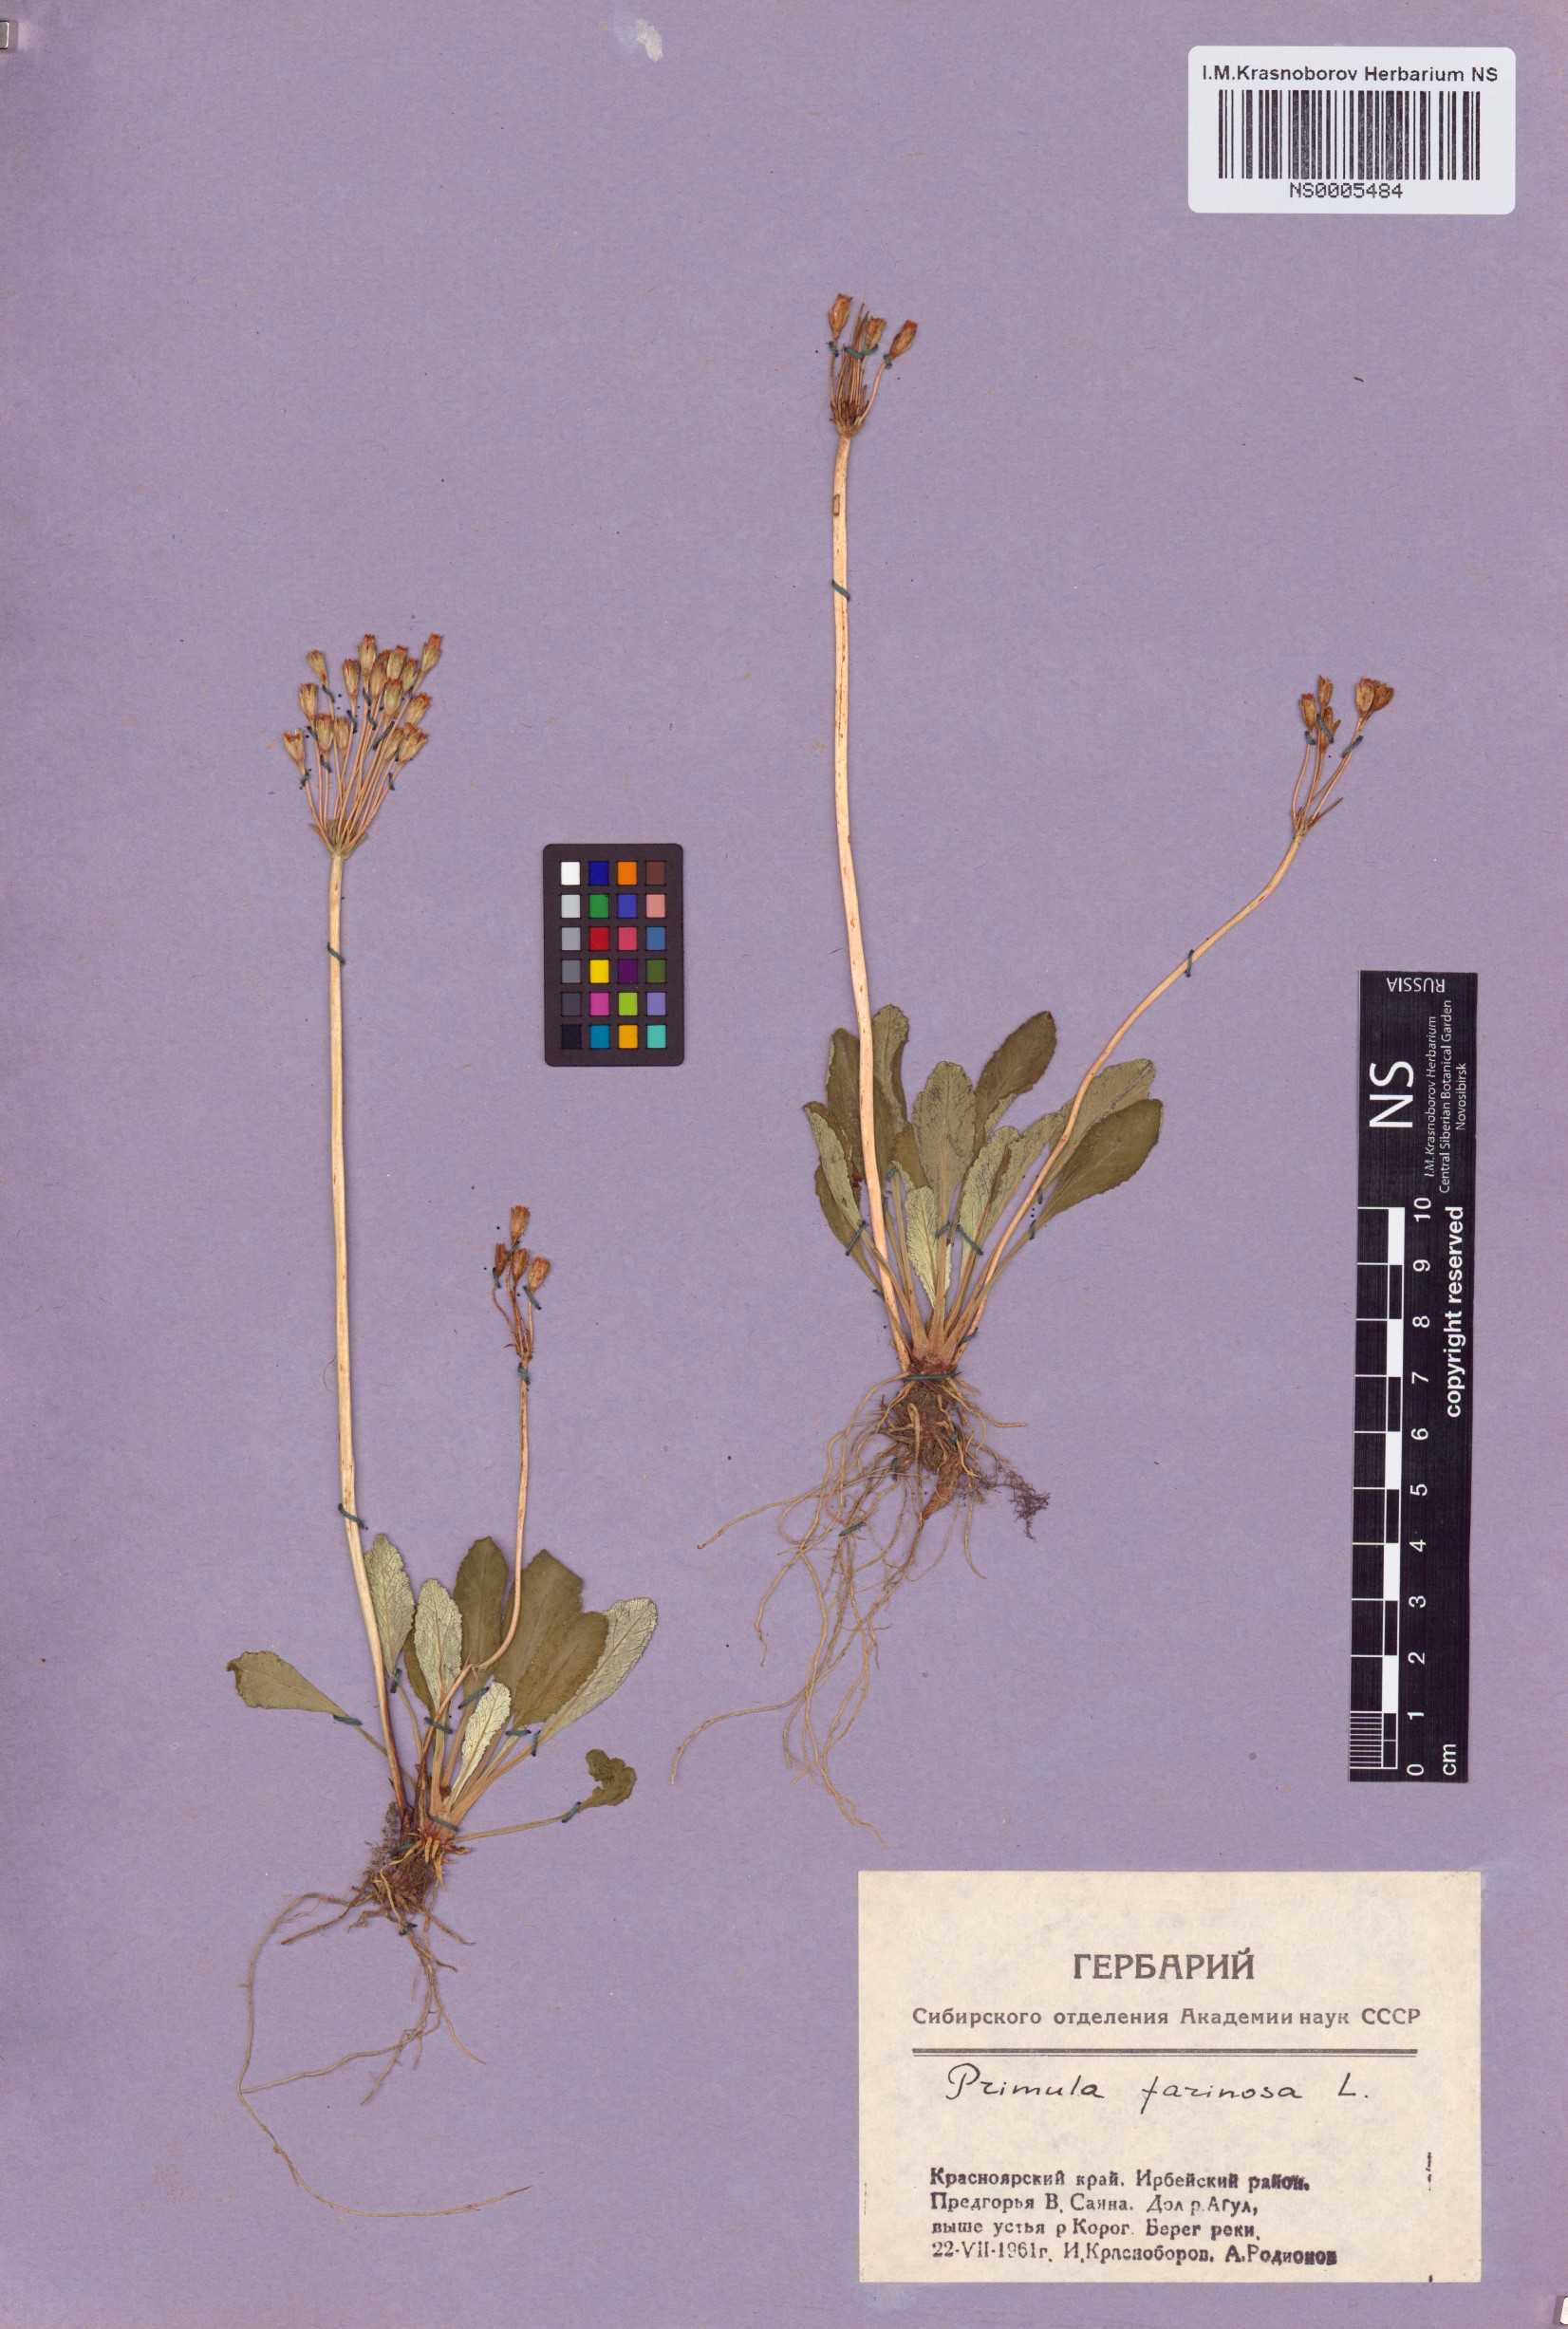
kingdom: Plantae
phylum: Tracheophyta
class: Magnoliopsida
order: Ericales
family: Primulaceae
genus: Primula
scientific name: Primula farinosa
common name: Bird's-eye primrose
